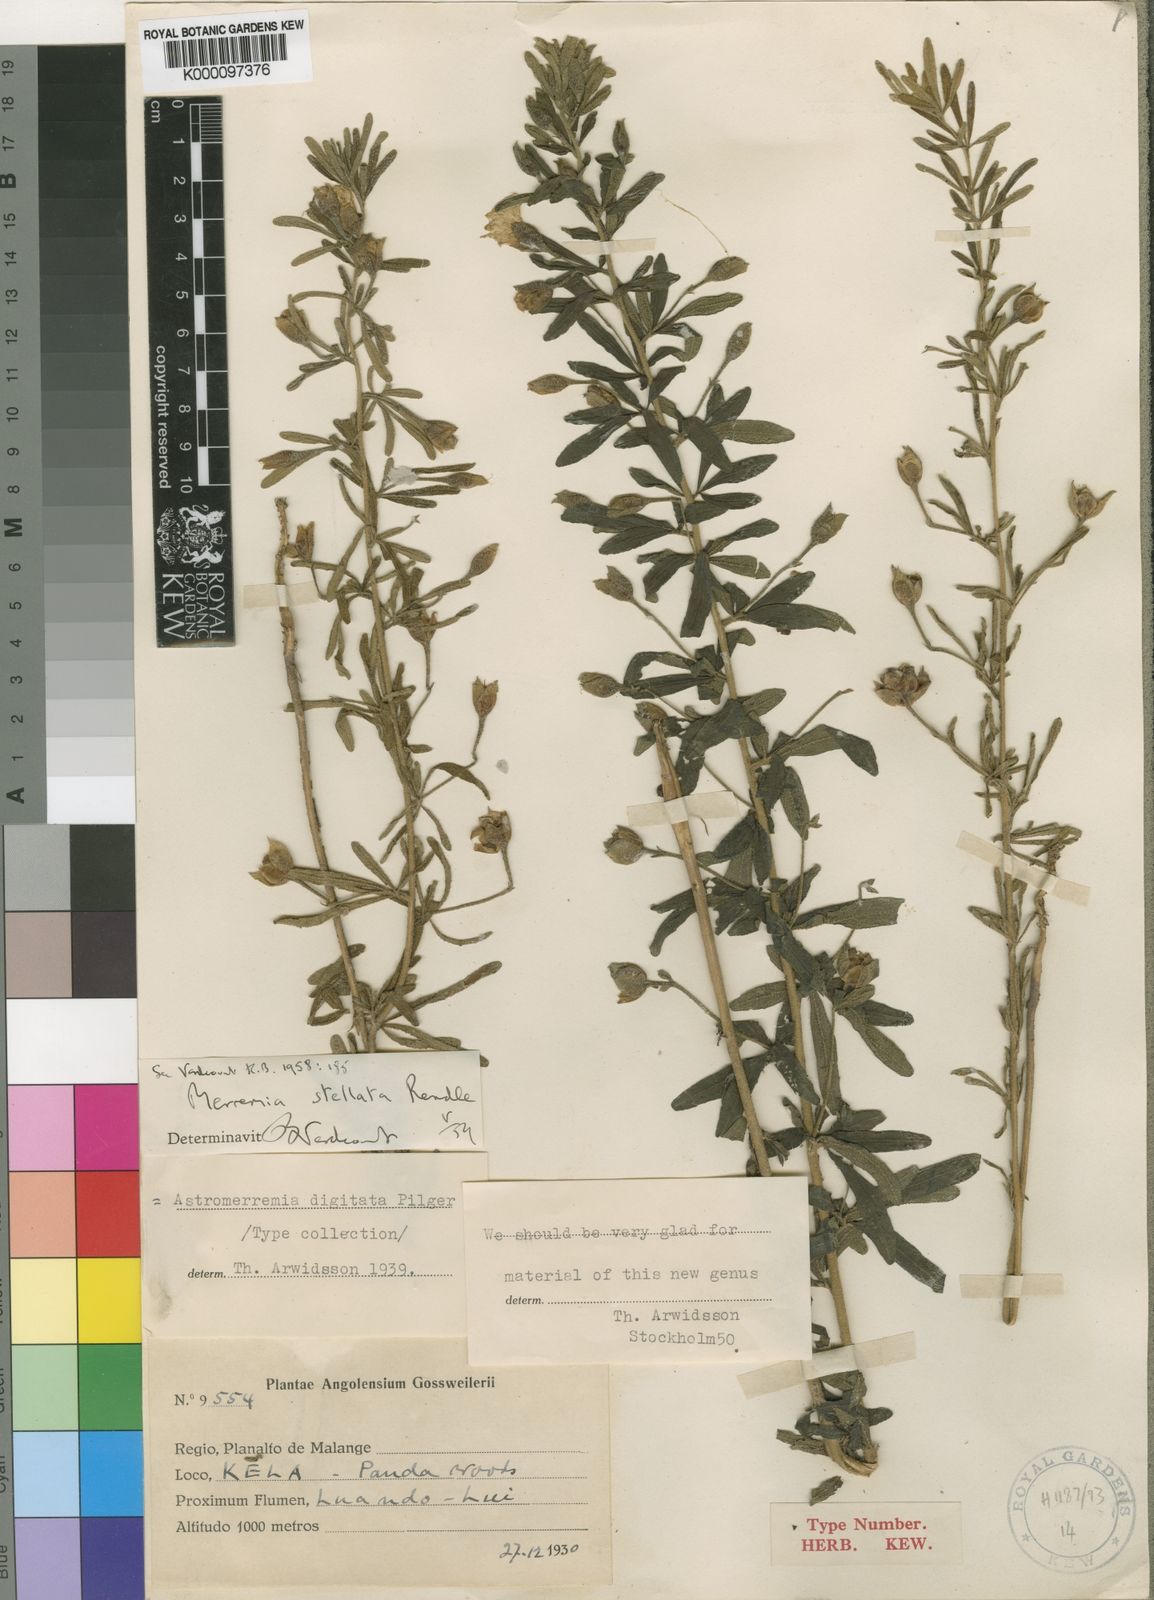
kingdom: Plantae
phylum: Tracheophyta
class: Magnoliopsida
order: Solanales
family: Convolvulaceae
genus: Distimake
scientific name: Distimake
